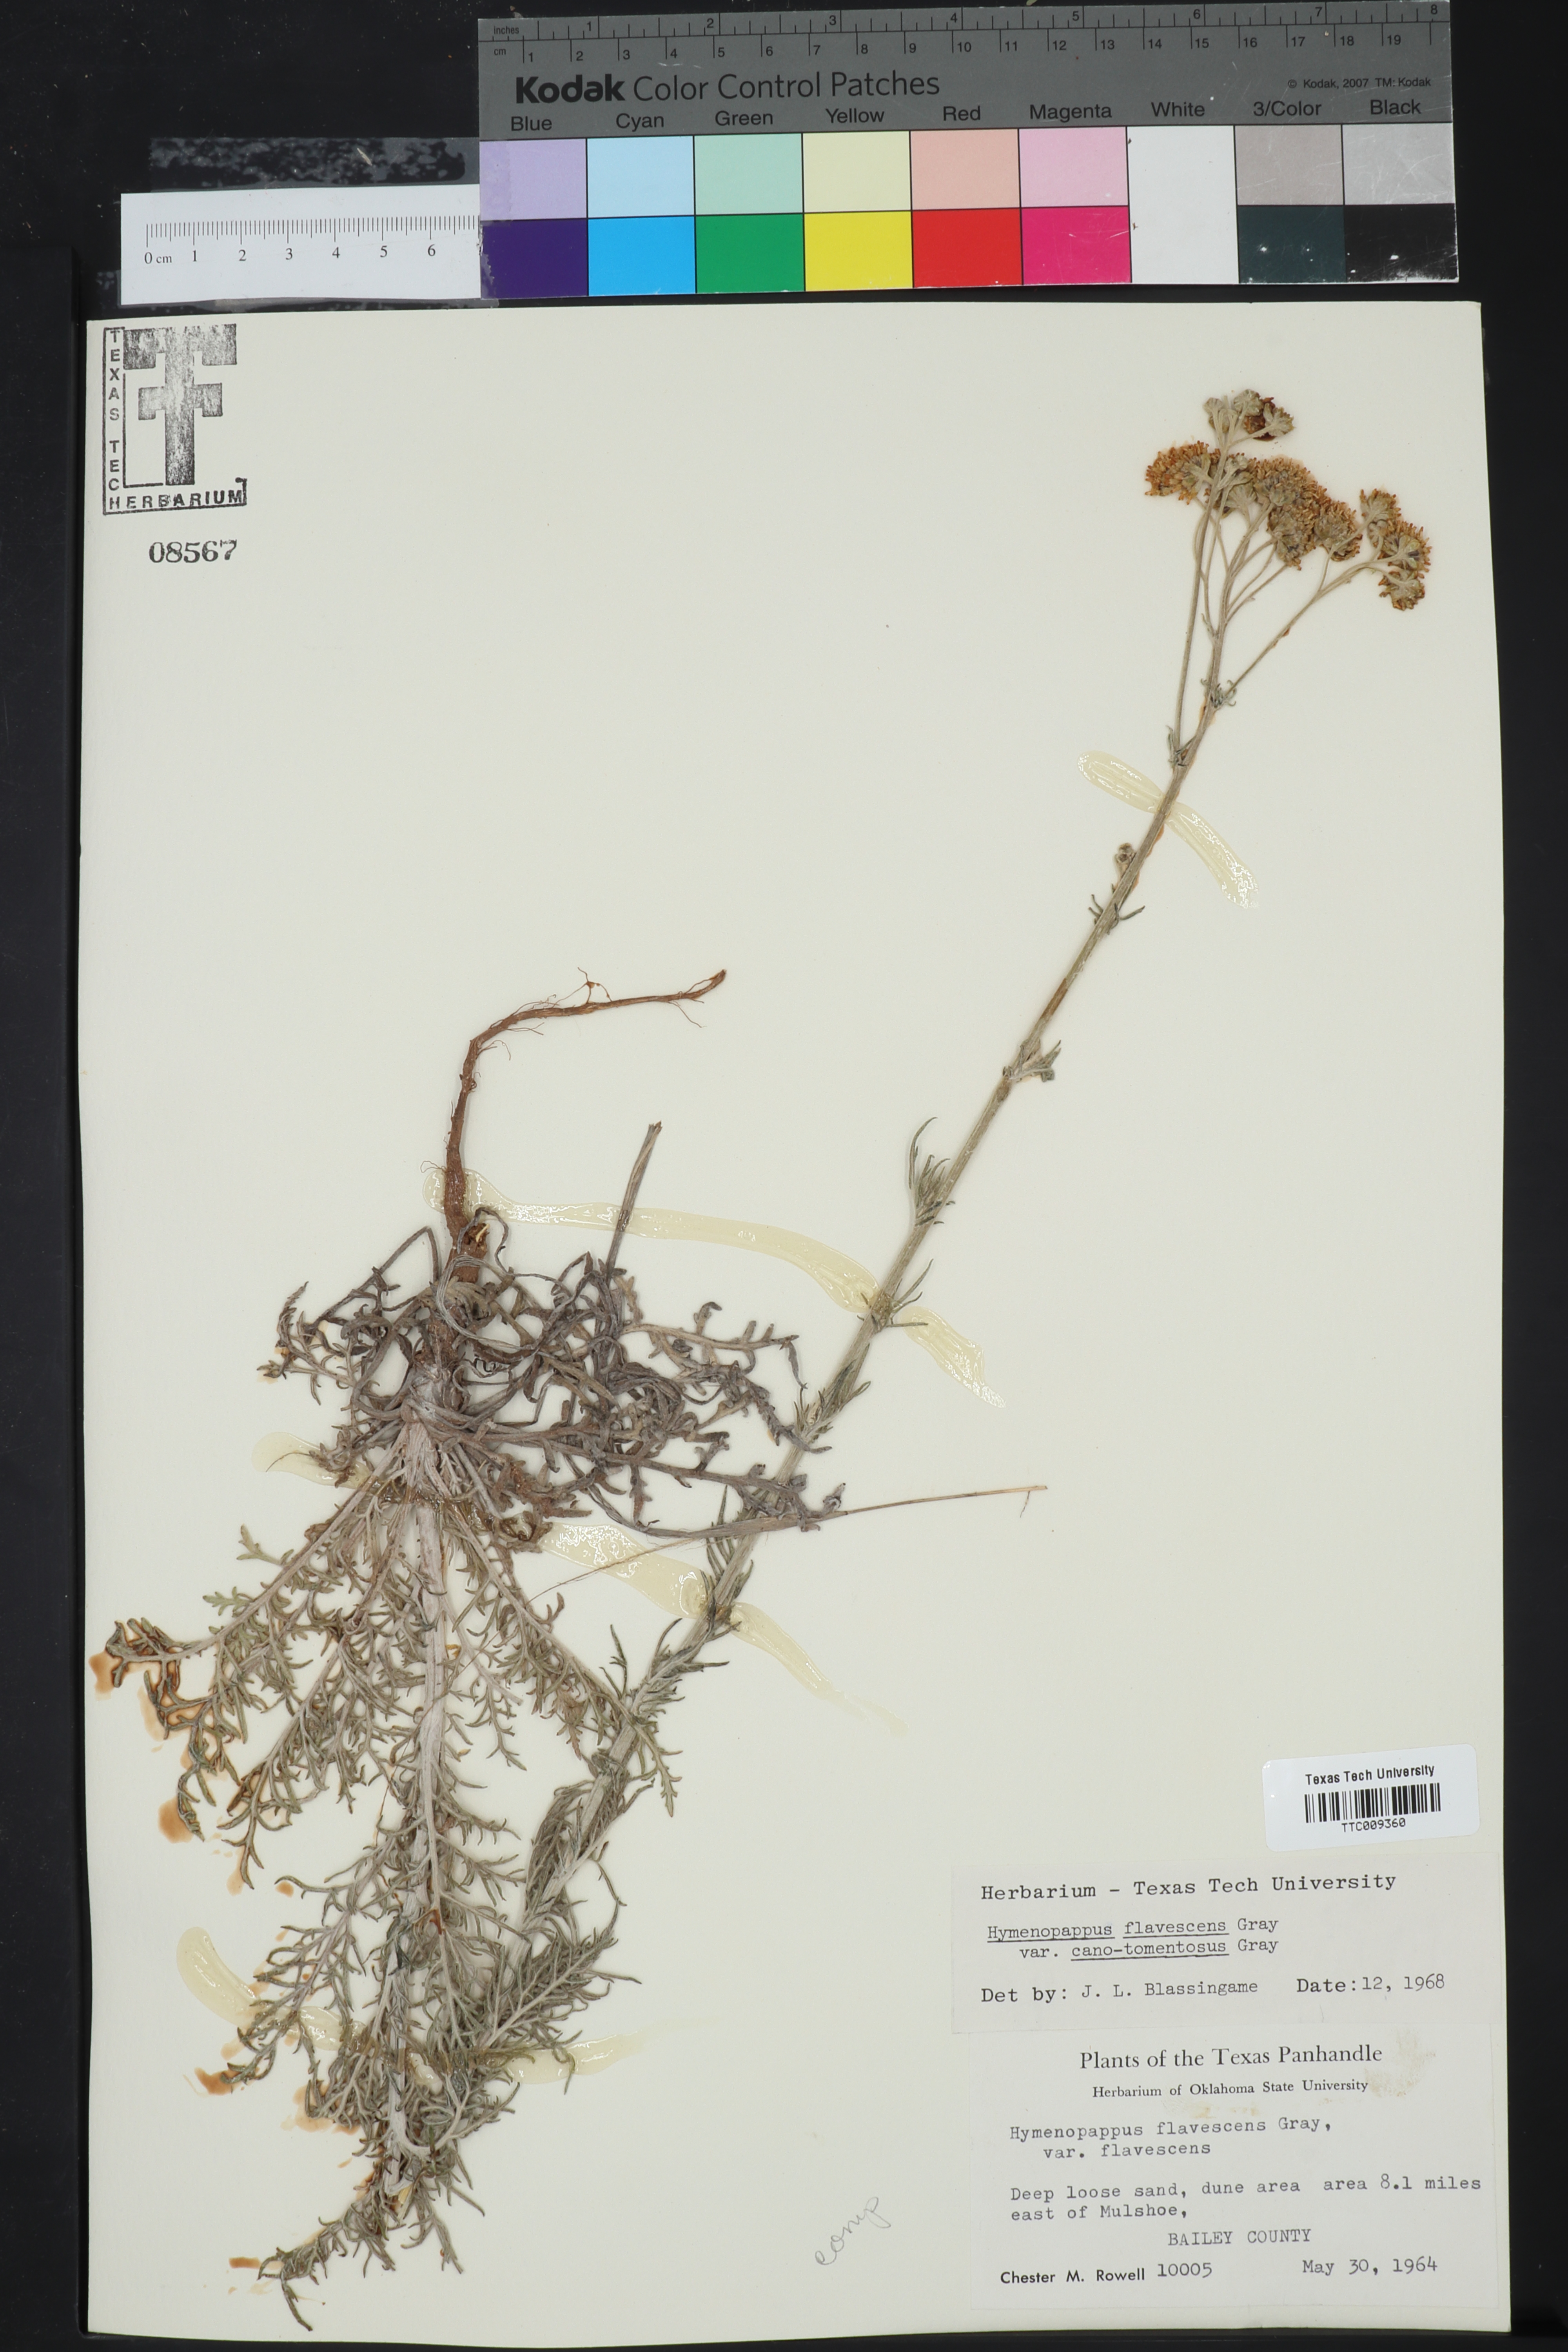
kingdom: Plantae
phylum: Tracheophyta
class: Magnoliopsida
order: Asterales
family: Asteraceae
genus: Hymenopappus
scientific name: Hymenopappus flavescens
